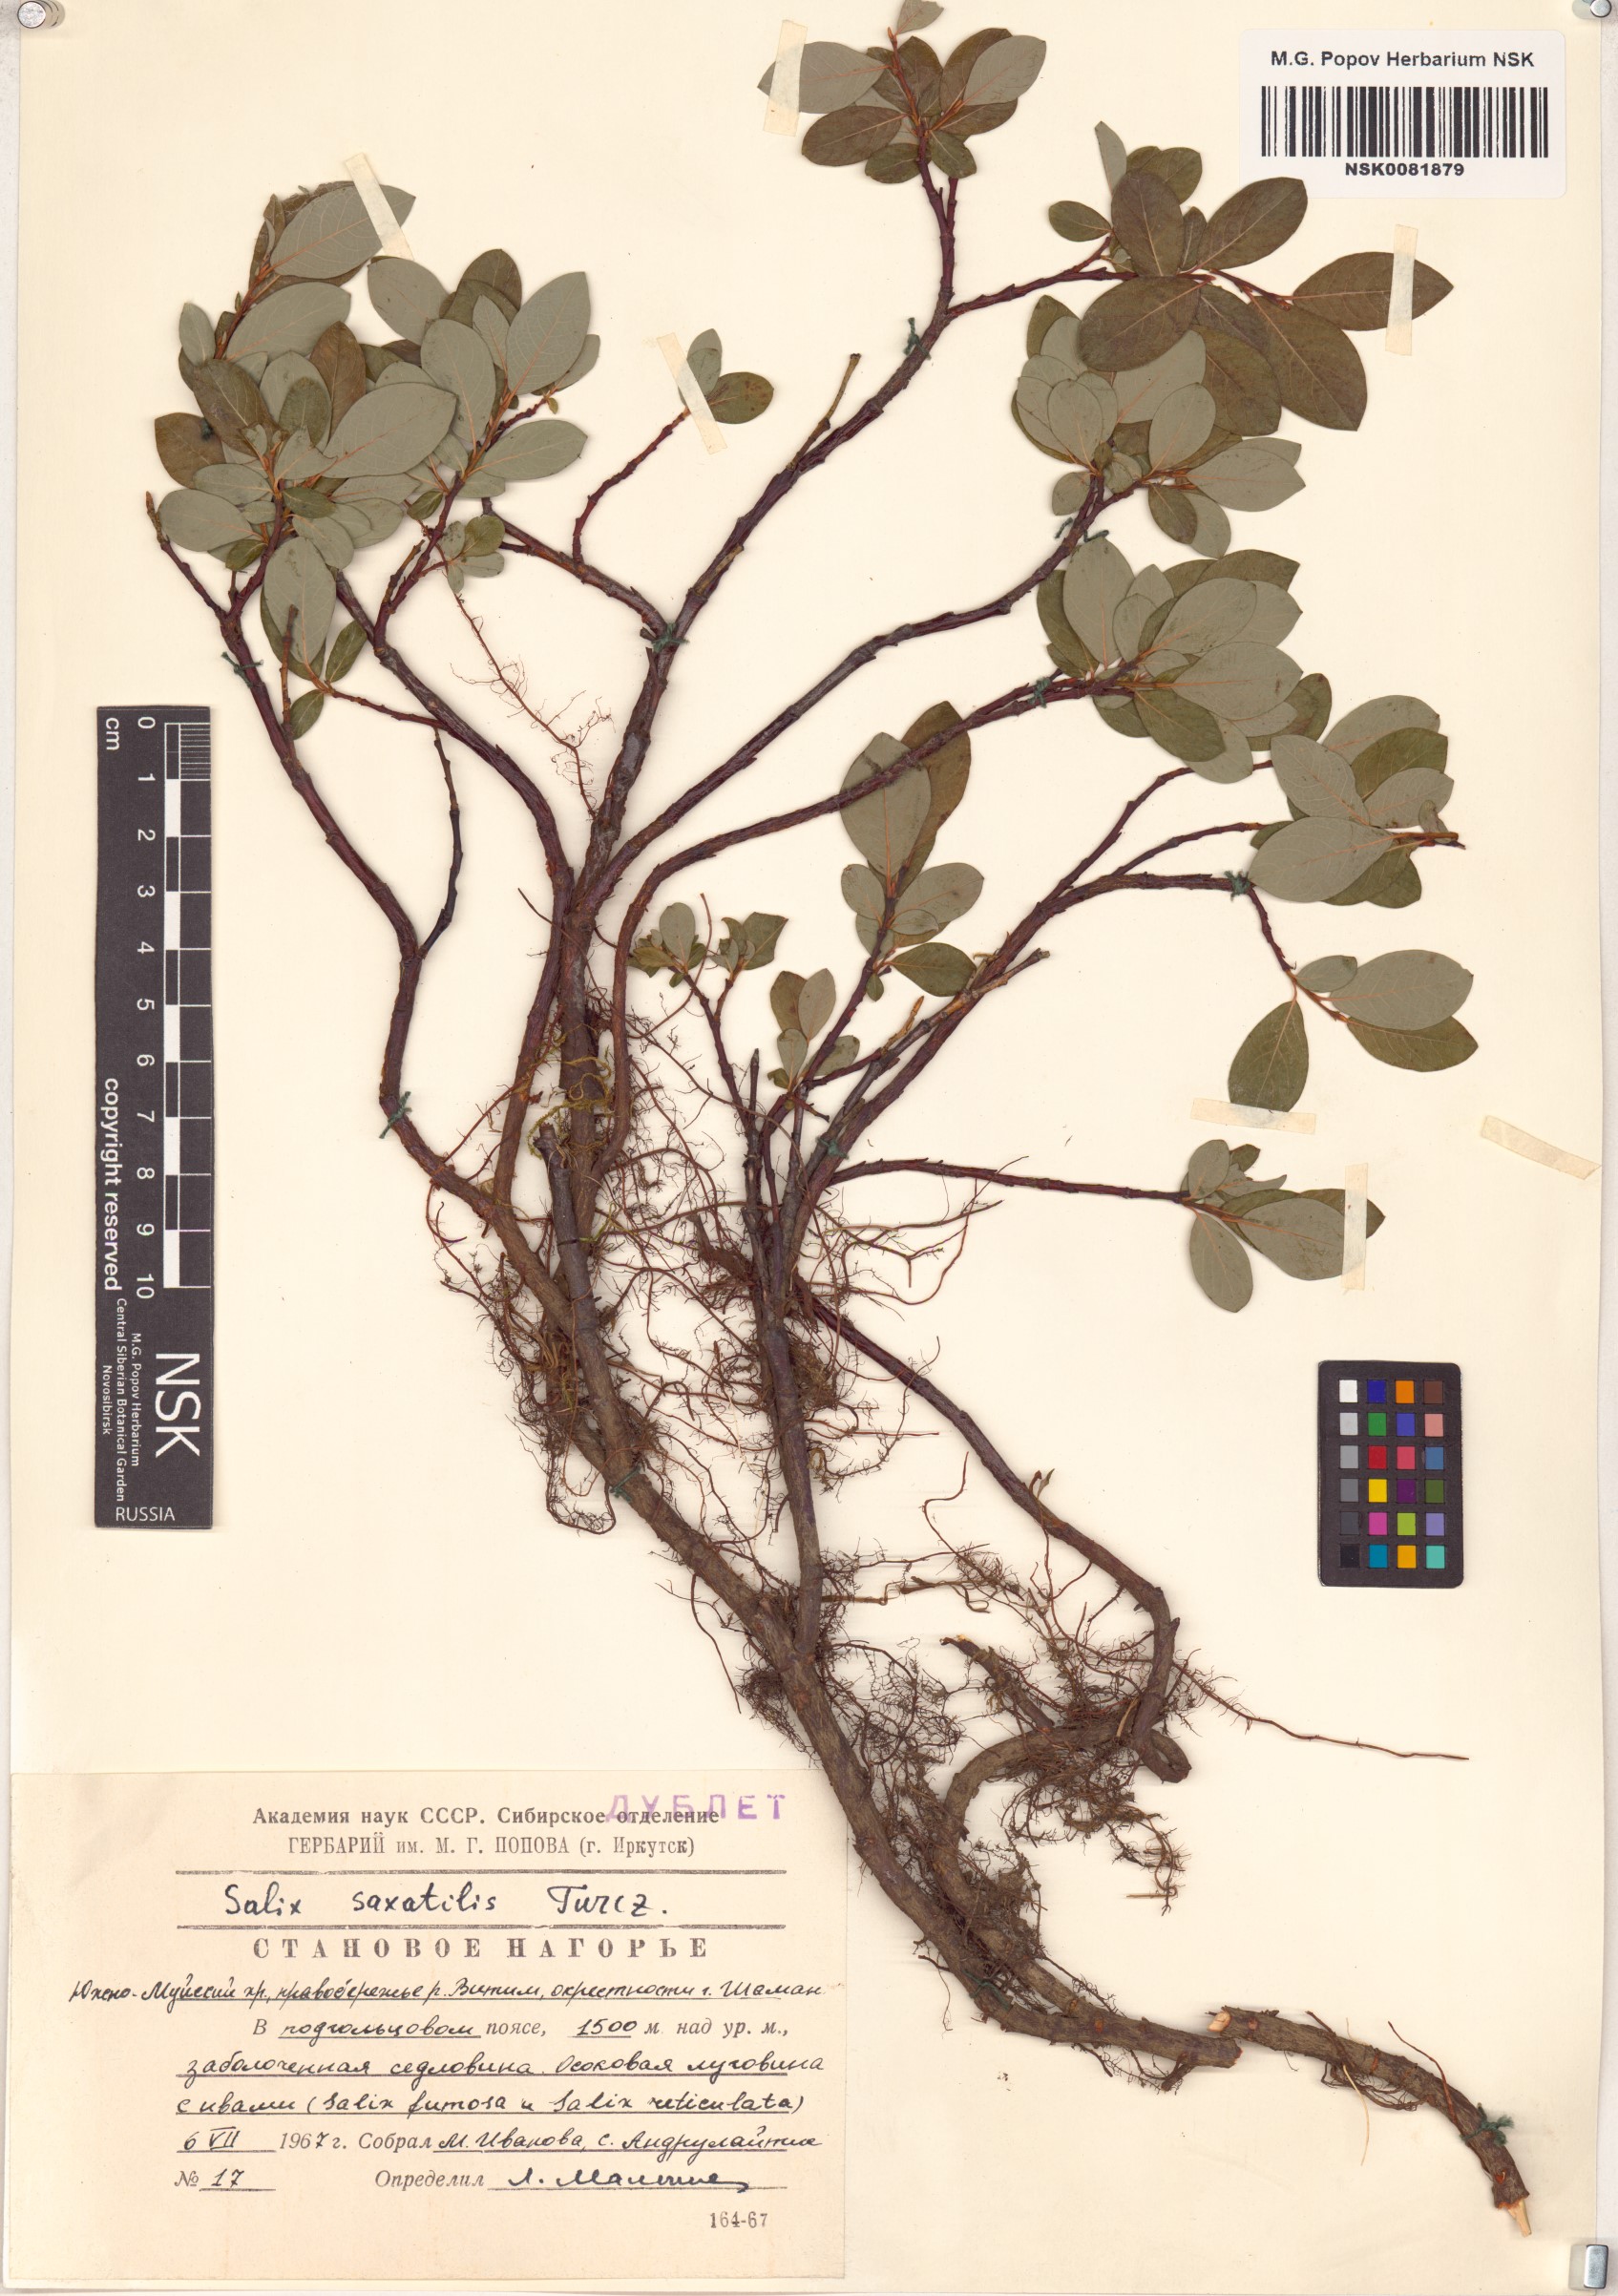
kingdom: Plantae
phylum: Tracheophyta
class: Magnoliopsida
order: Malpighiales
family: Salicaceae
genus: Salix
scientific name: Salix saxatilis
